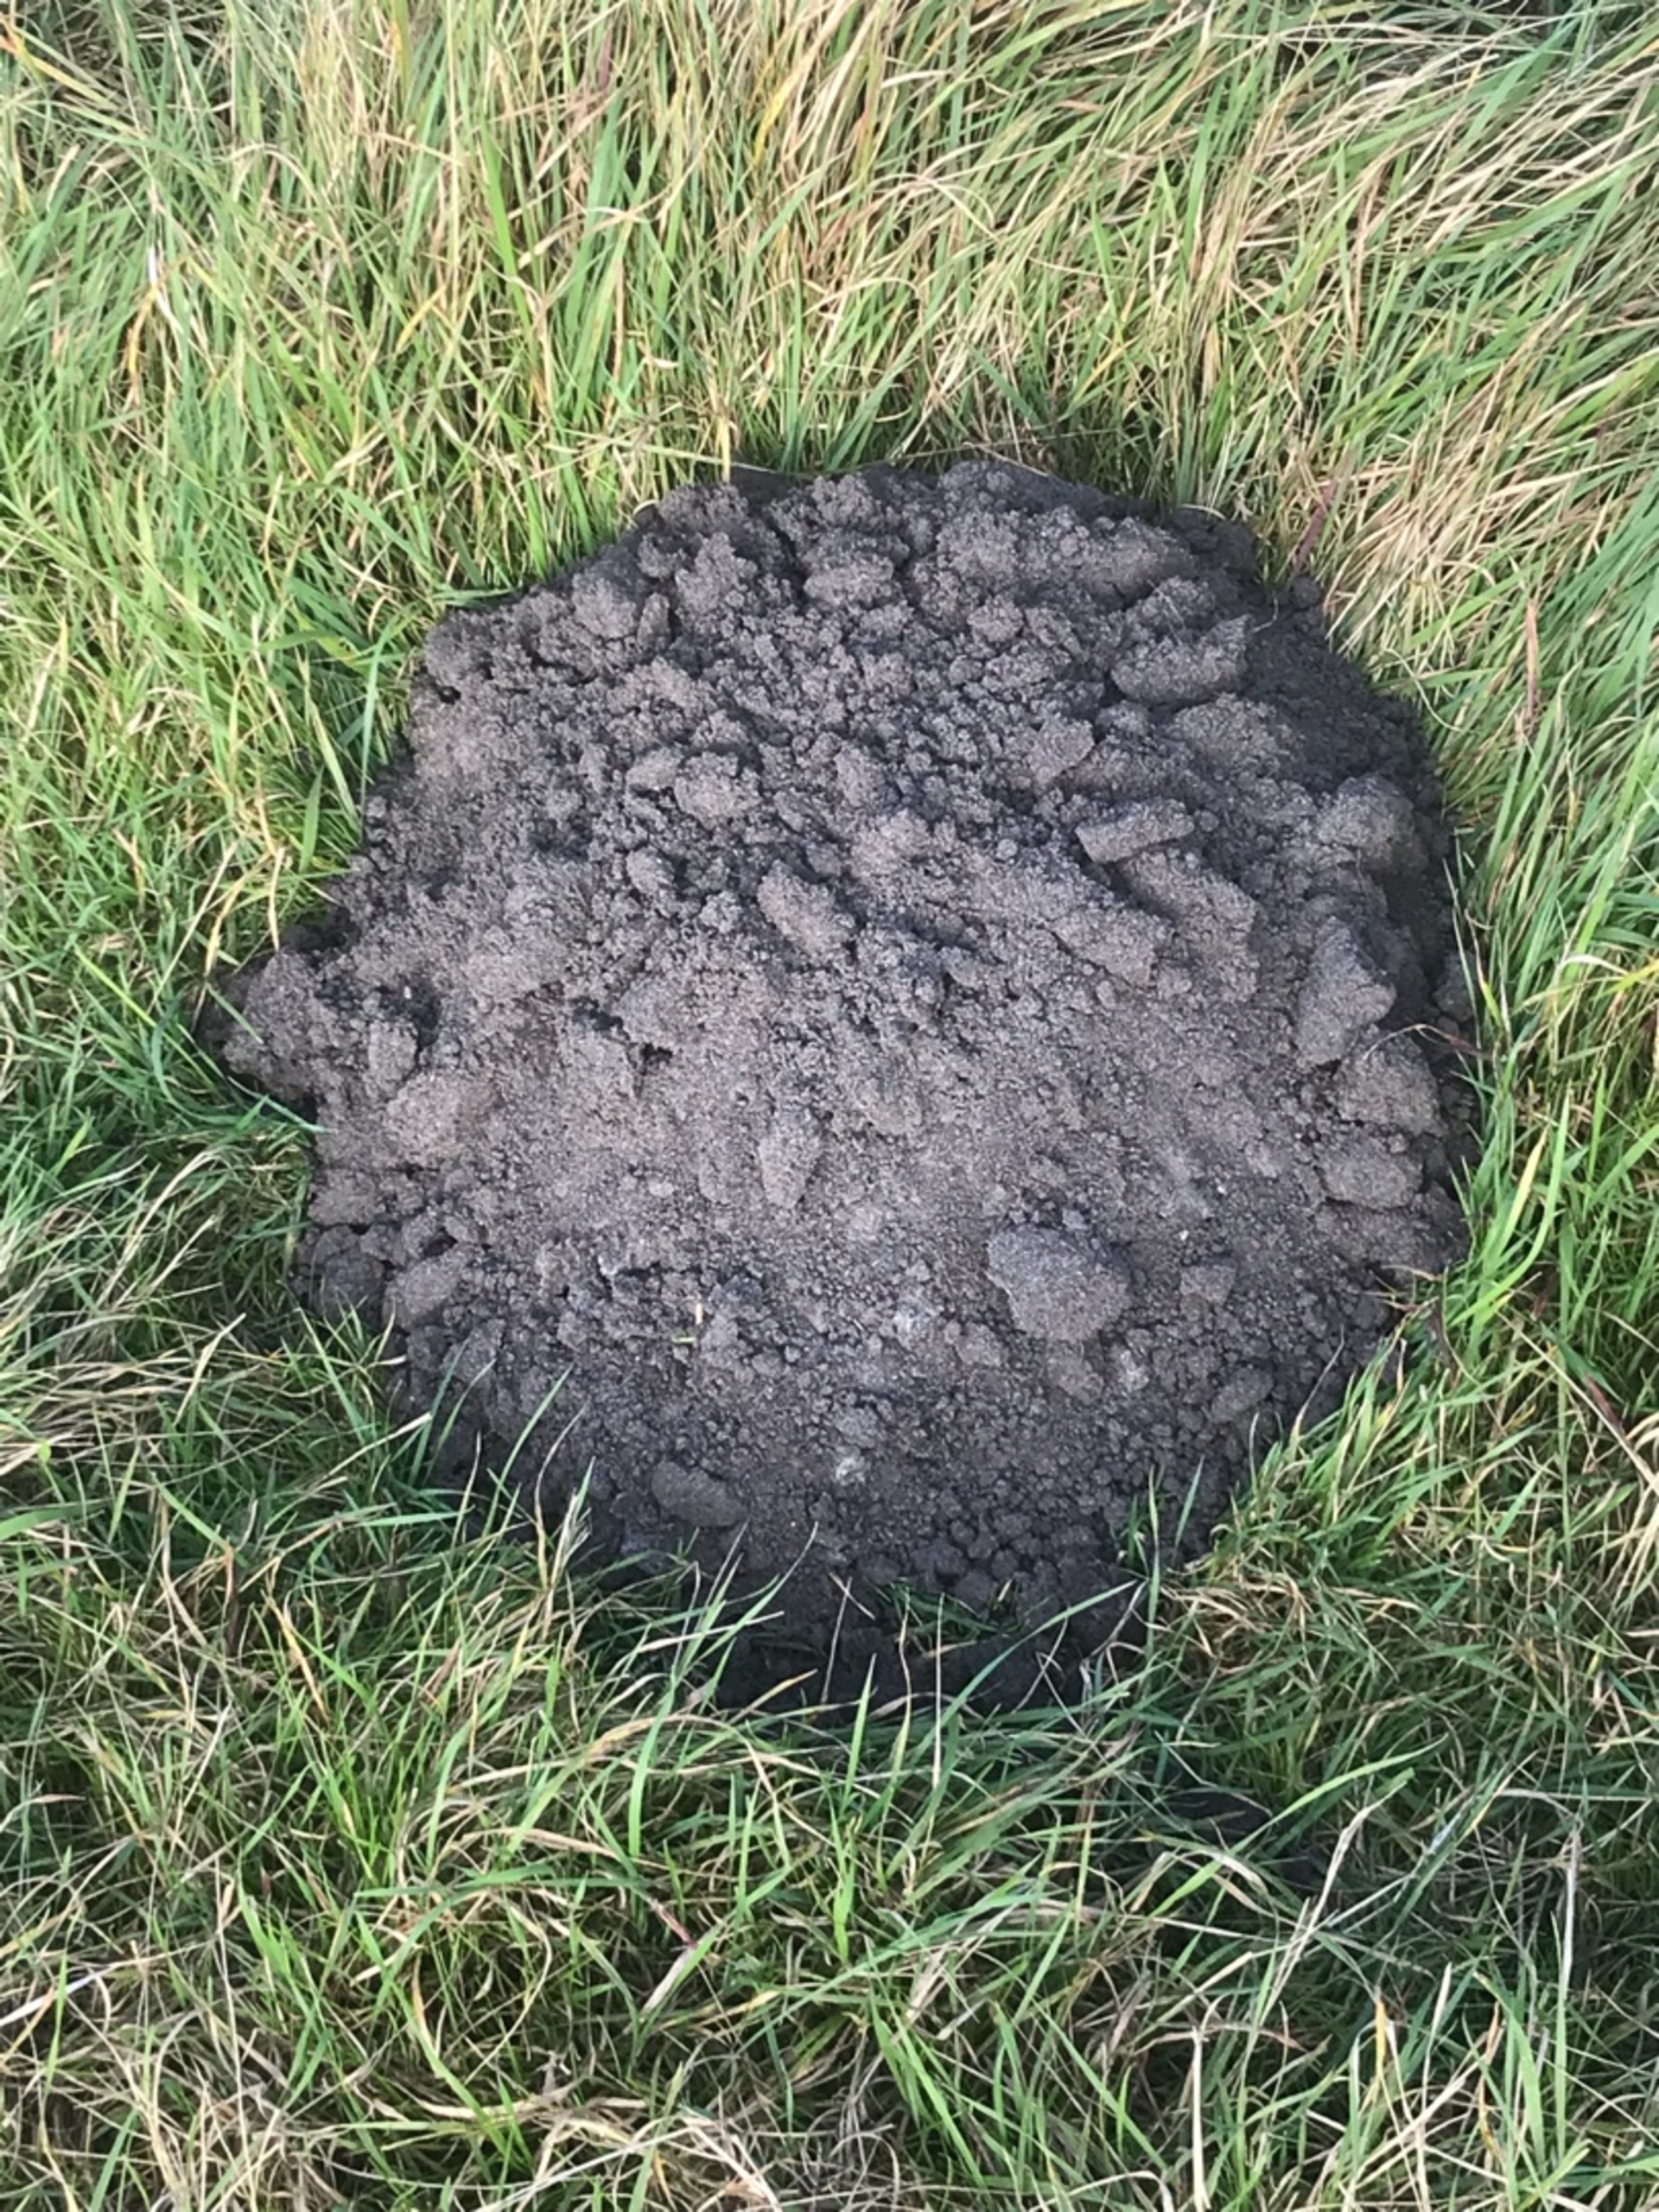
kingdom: Animalia
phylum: Chordata
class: Mammalia
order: Soricomorpha
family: Talpidae
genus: Talpa
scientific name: Talpa europaea
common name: Muldvarp
